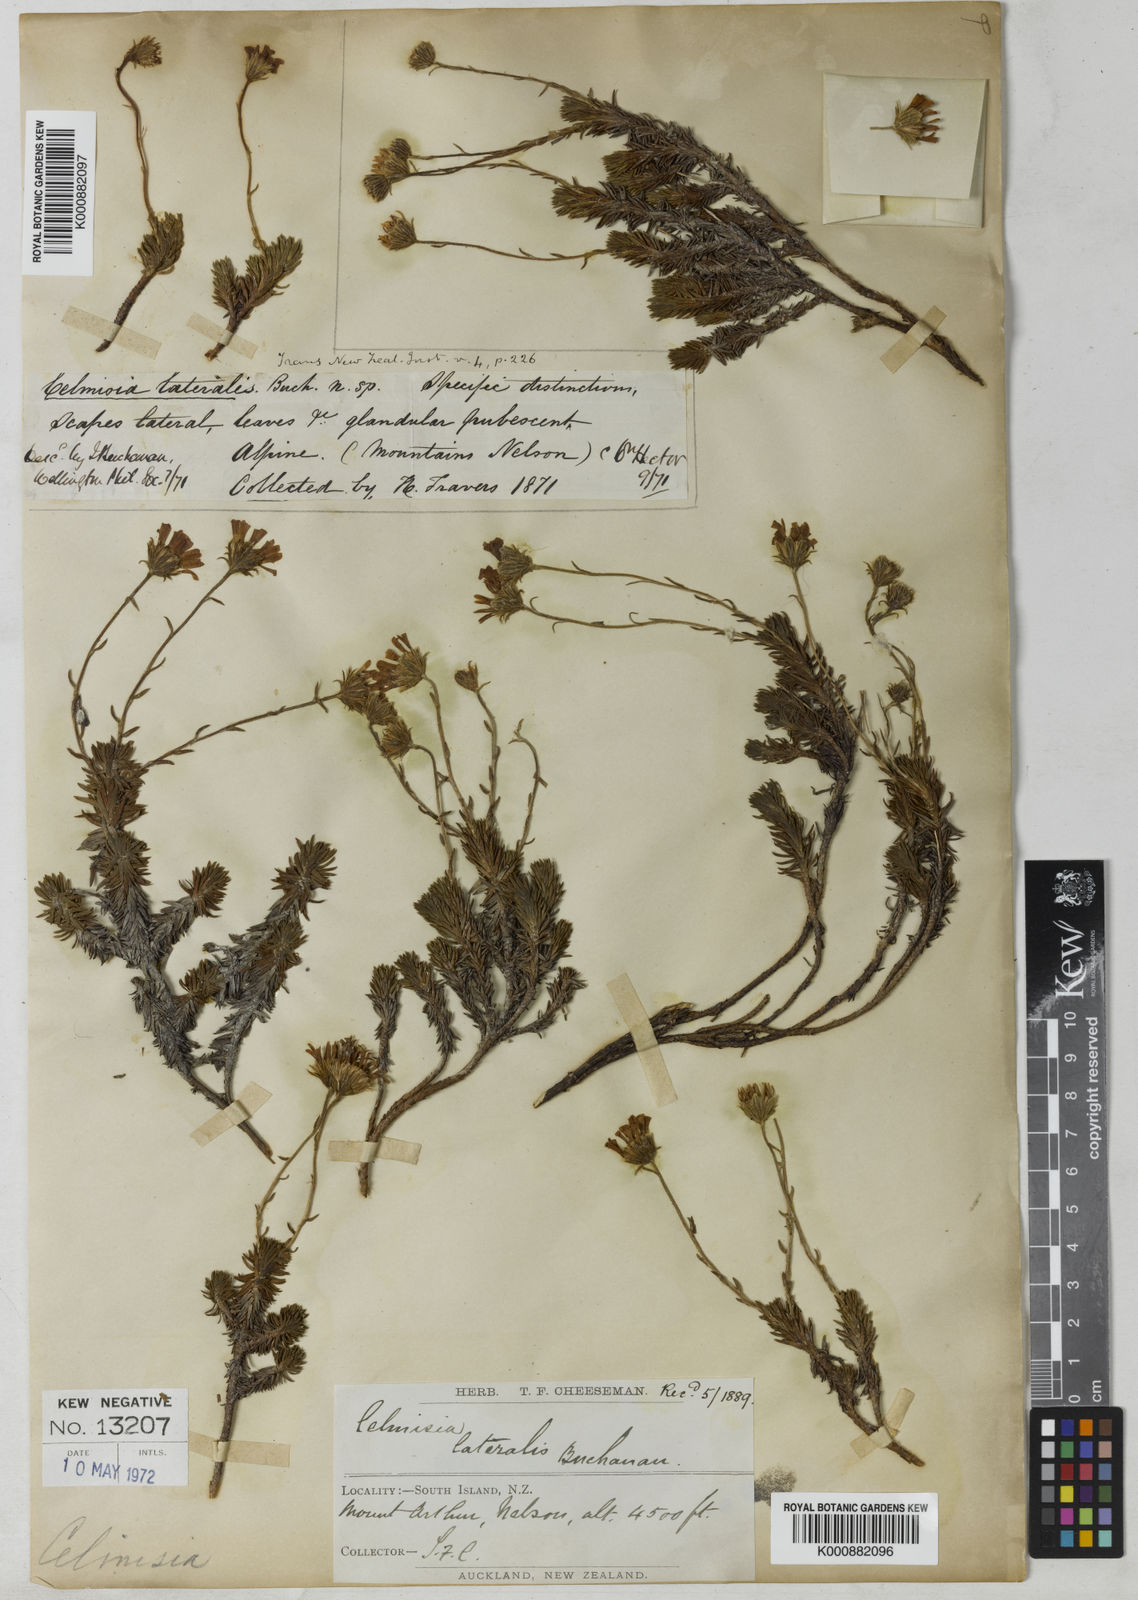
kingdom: Plantae
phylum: Tracheophyta
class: Magnoliopsida
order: Asterales
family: Asteraceae
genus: Celmisia
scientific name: Celmisia lateralis
